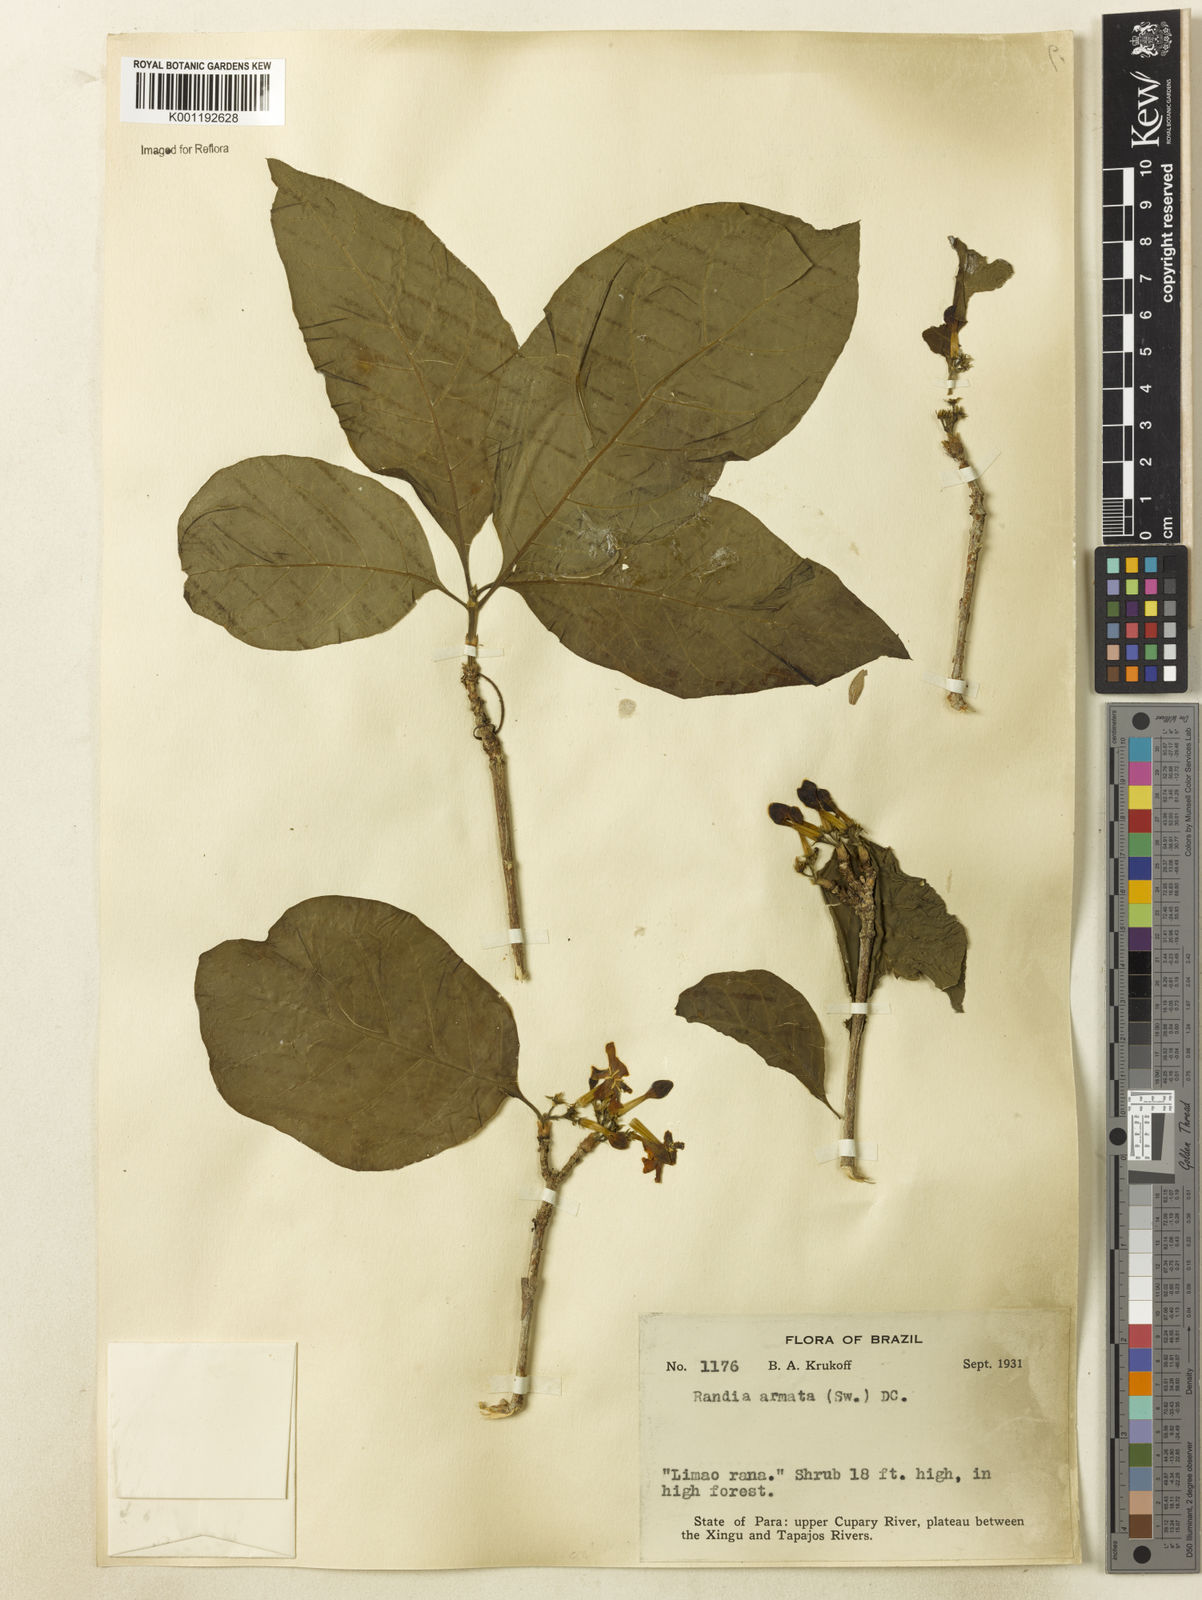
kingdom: Plantae
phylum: Tracheophyta
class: Magnoliopsida
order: Gentianales
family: Rubiaceae
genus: Randia
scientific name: Randia armata
